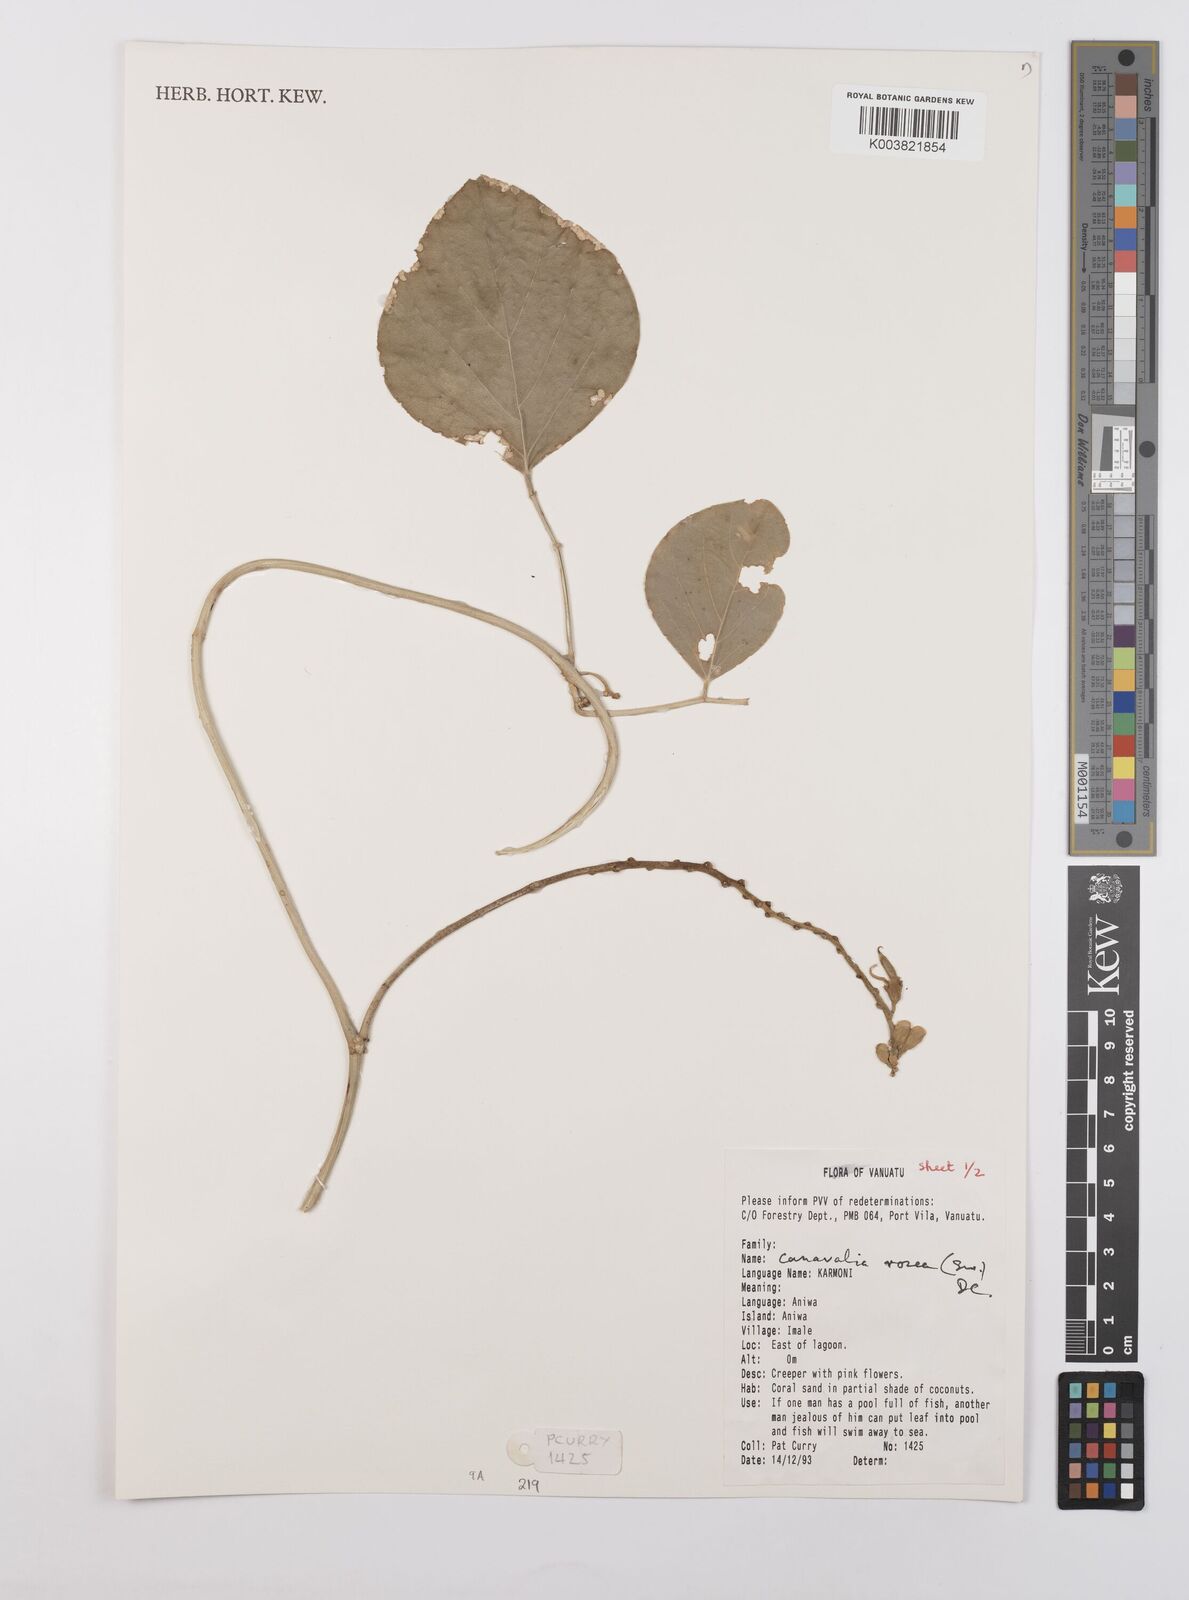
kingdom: Plantae
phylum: Tracheophyta
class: Magnoliopsida
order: Fabales
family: Fabaceae
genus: Canavalia
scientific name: Canavalia rosea
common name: Beach-bean
